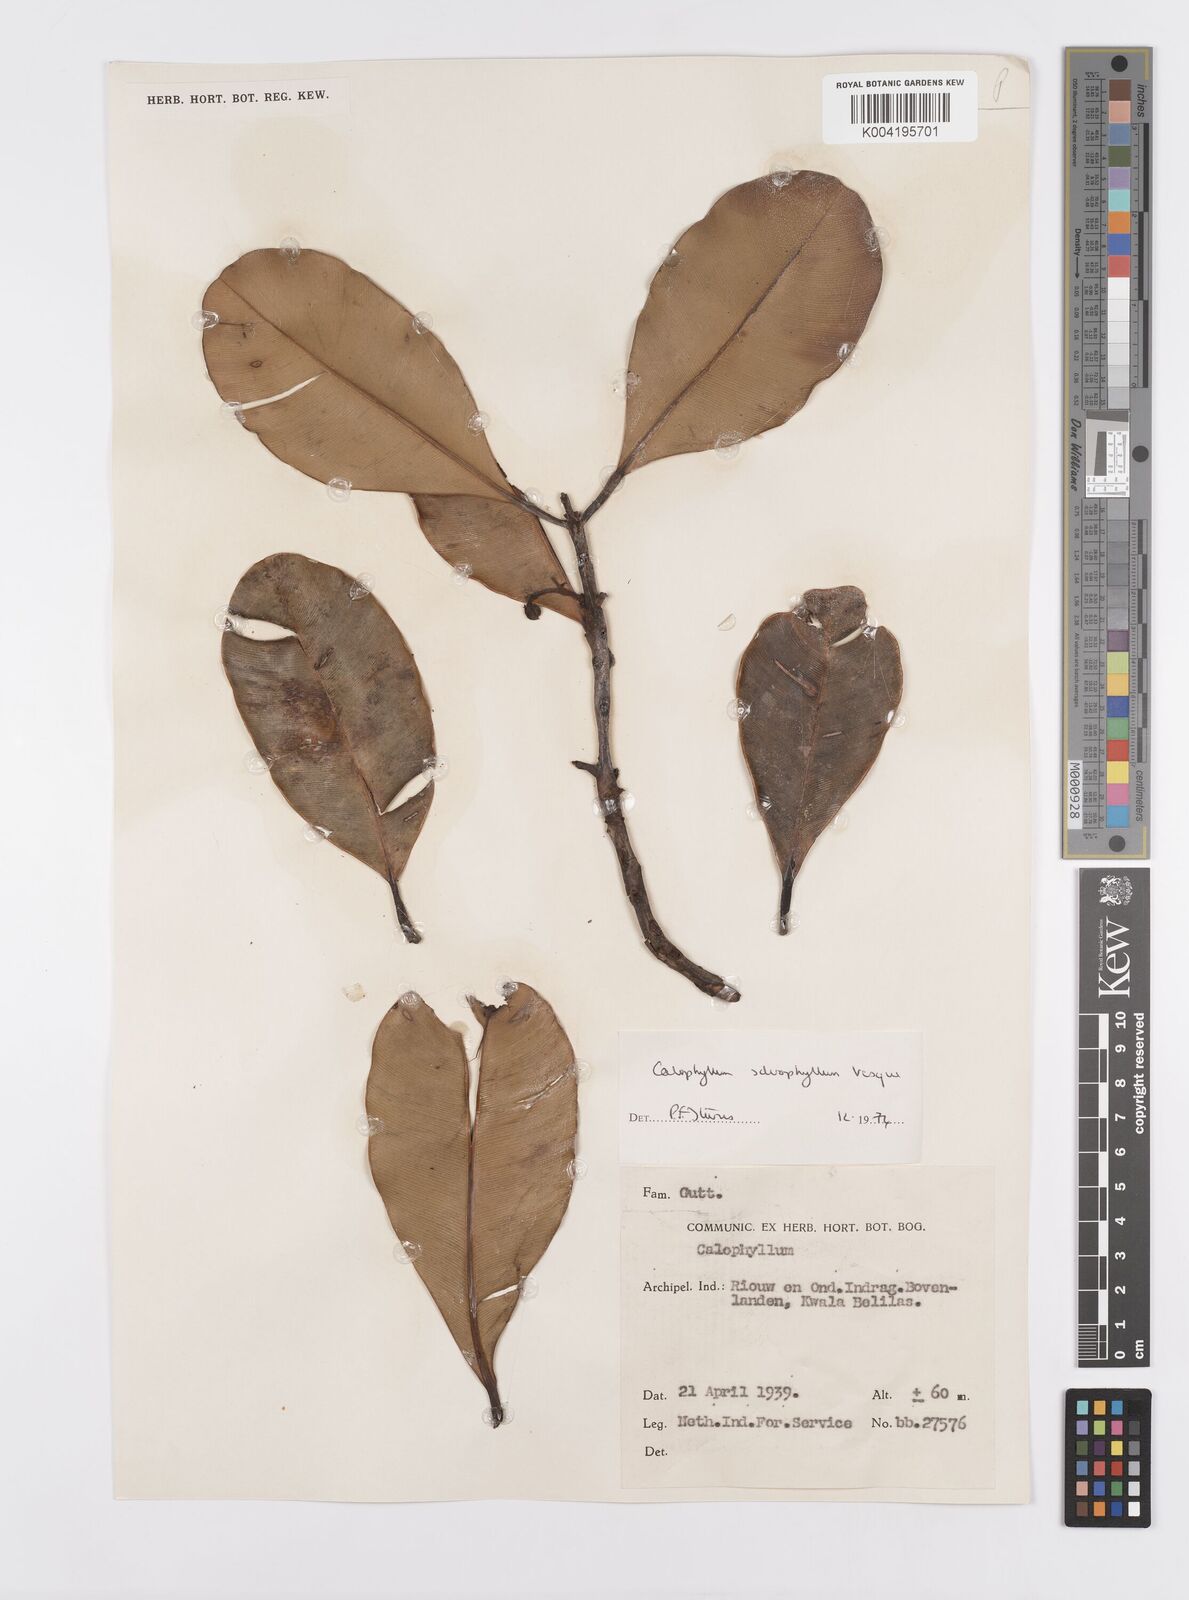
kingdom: Plantae
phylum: Tracheophyta
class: Magnoliopsida
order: Malpighiales
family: Calophyllaceae
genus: Calophyllum
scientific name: Calophyllum sclerophyllum
